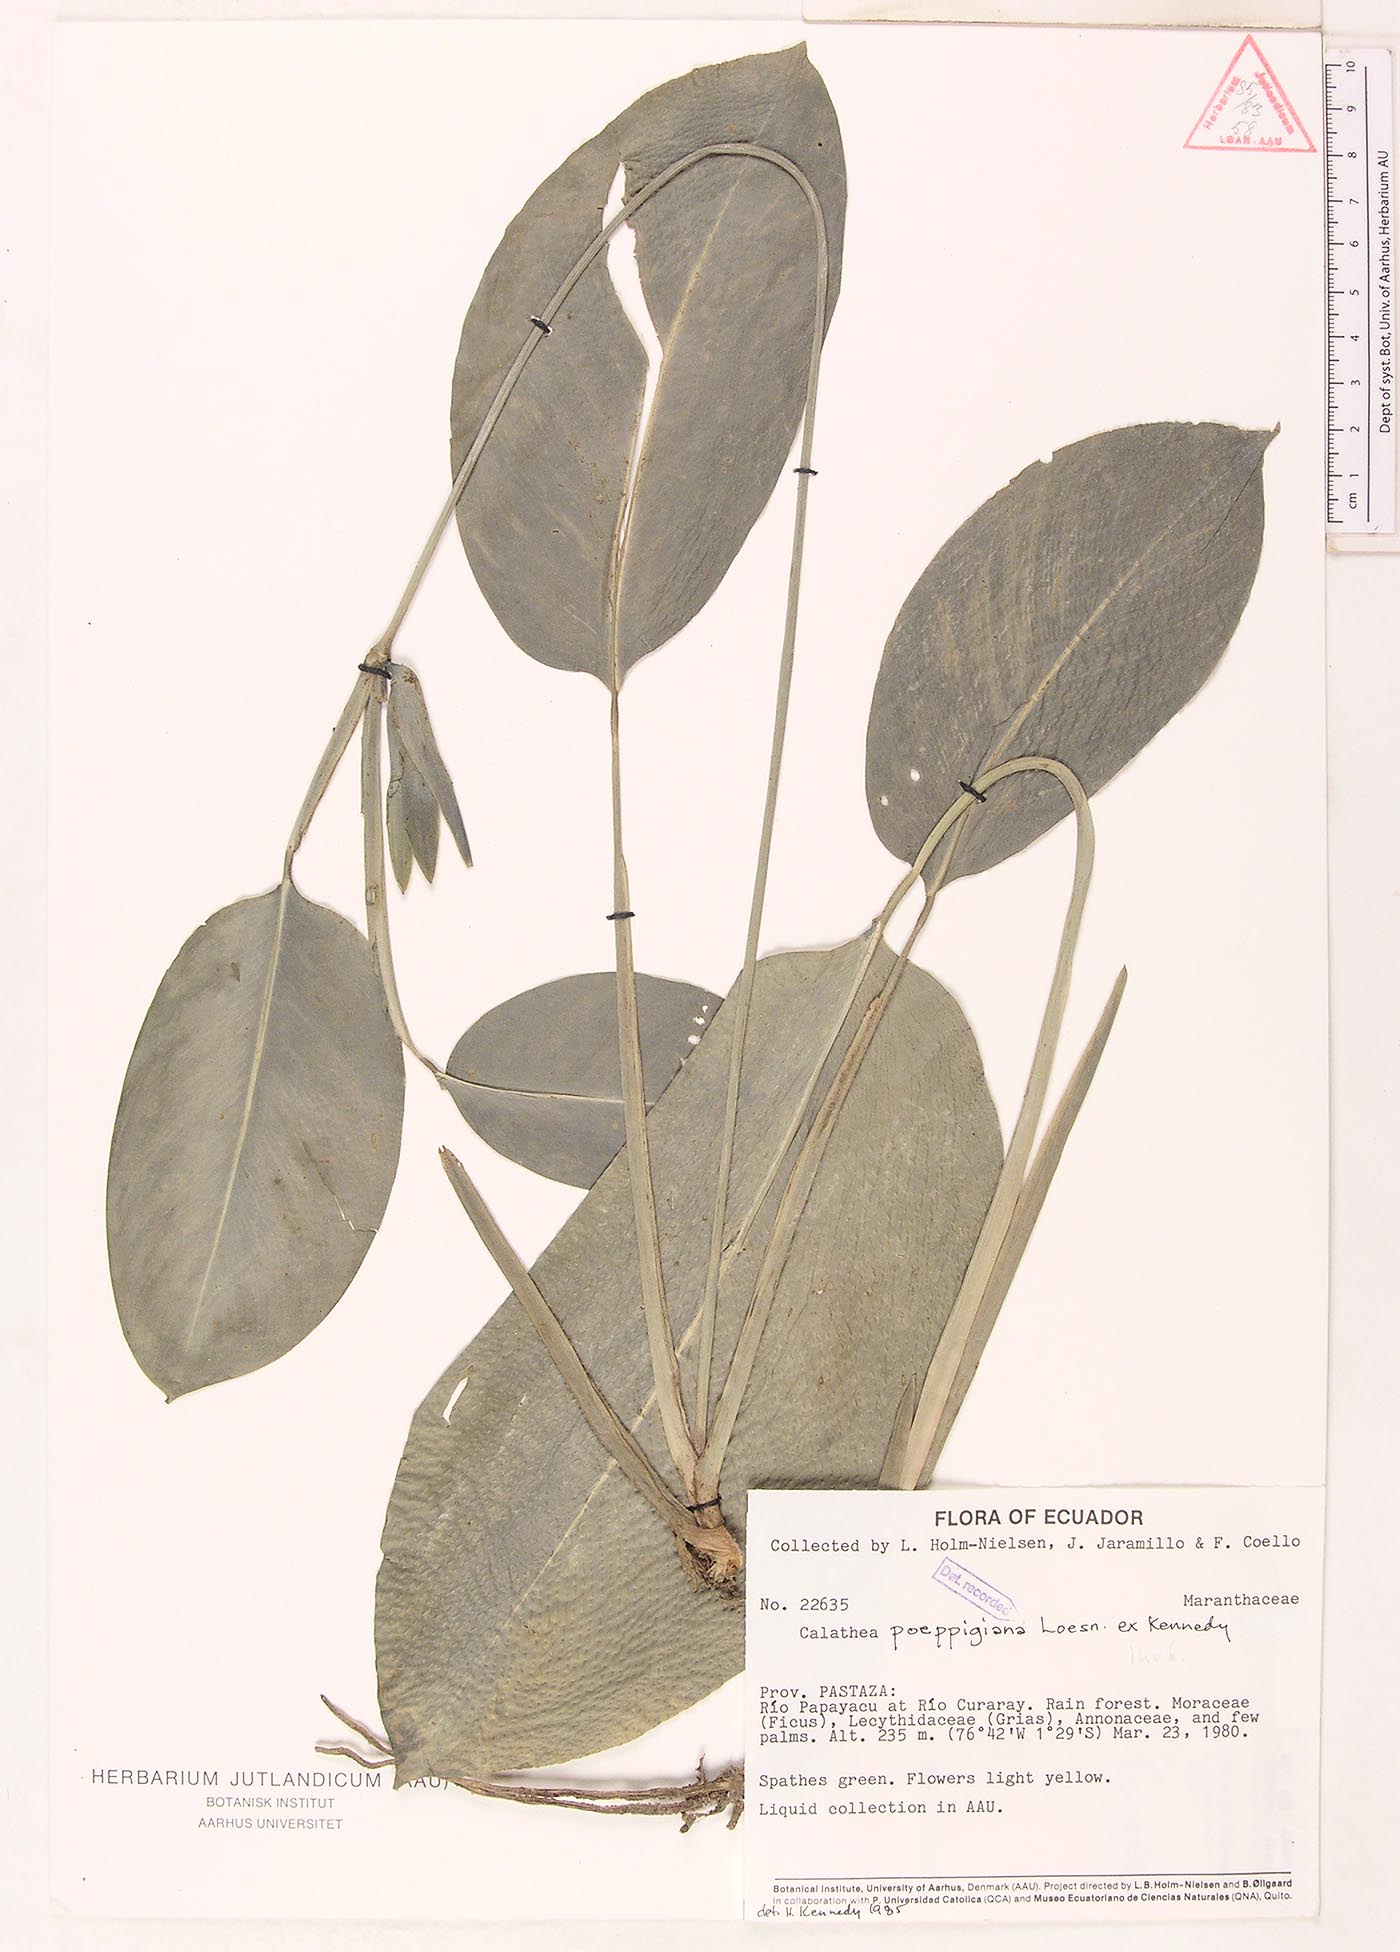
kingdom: Plantae
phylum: Tracheophyta
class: Liliopsida
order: Zingiberales
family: Marantaceae
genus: Goeppertia
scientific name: Goeppertia poeppigiana
